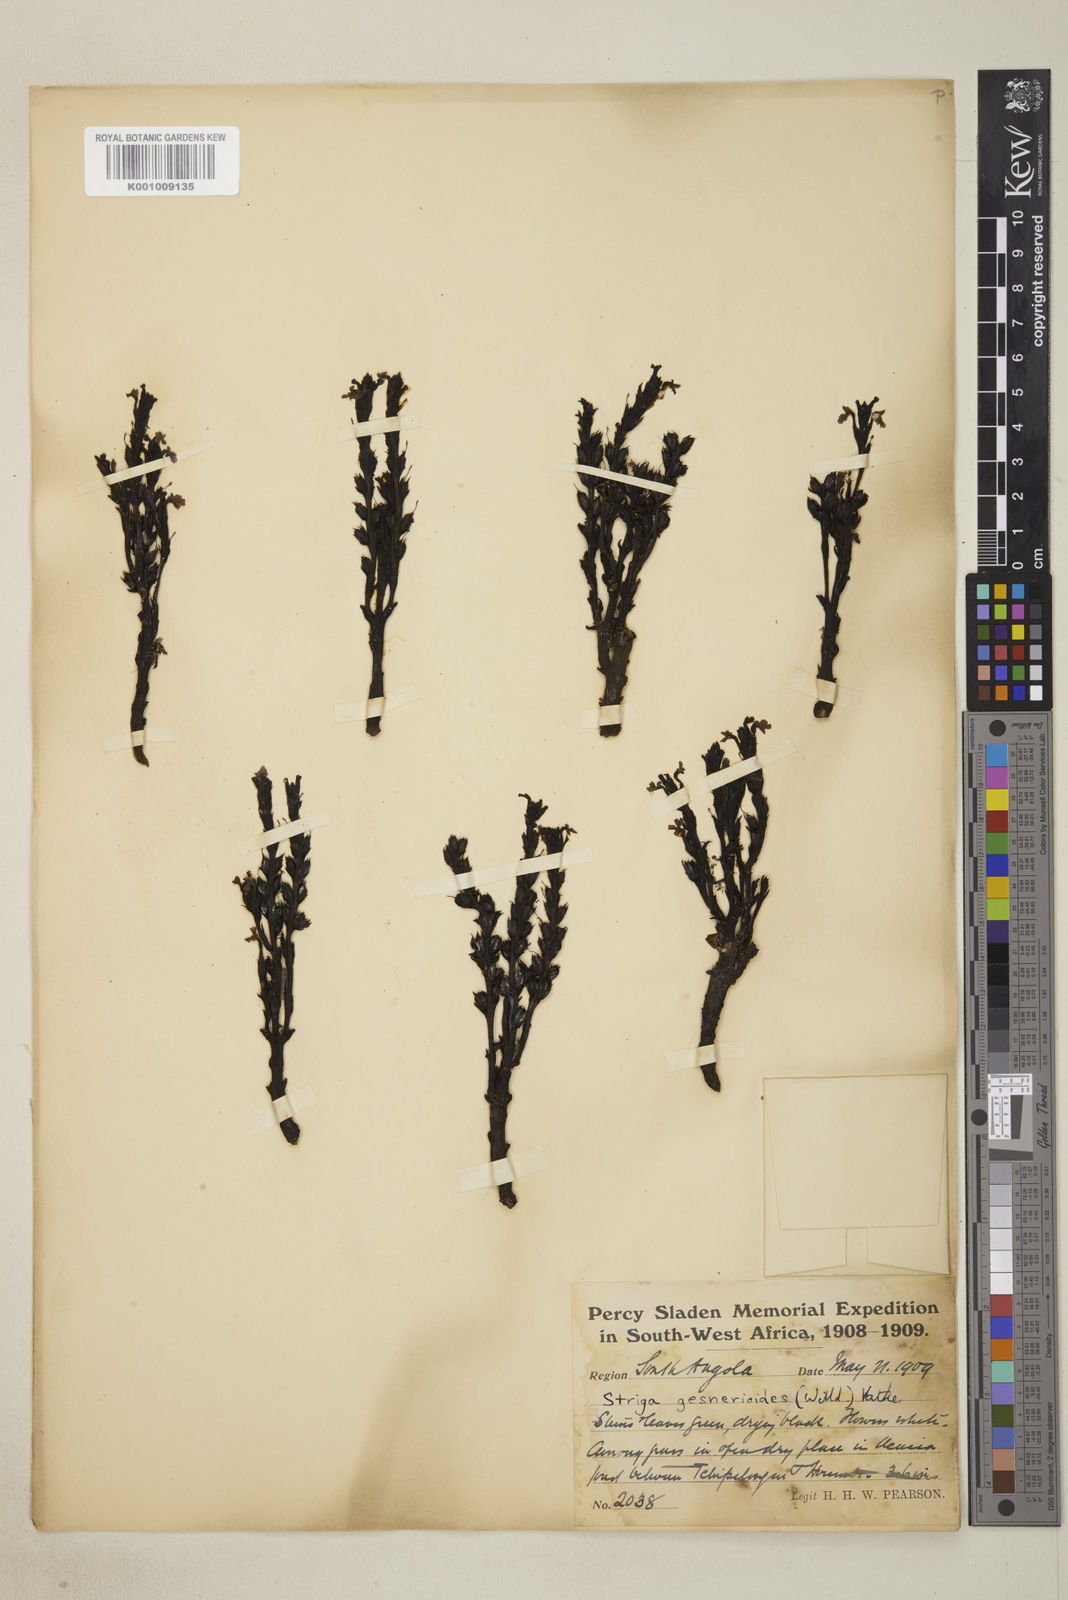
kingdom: Plantae
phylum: Tracheophyta
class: Magnoliopsida
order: Lamiales
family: Orobanchaceae
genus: Striga
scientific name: Striga gesnerioides
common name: Cowpea witchweed
